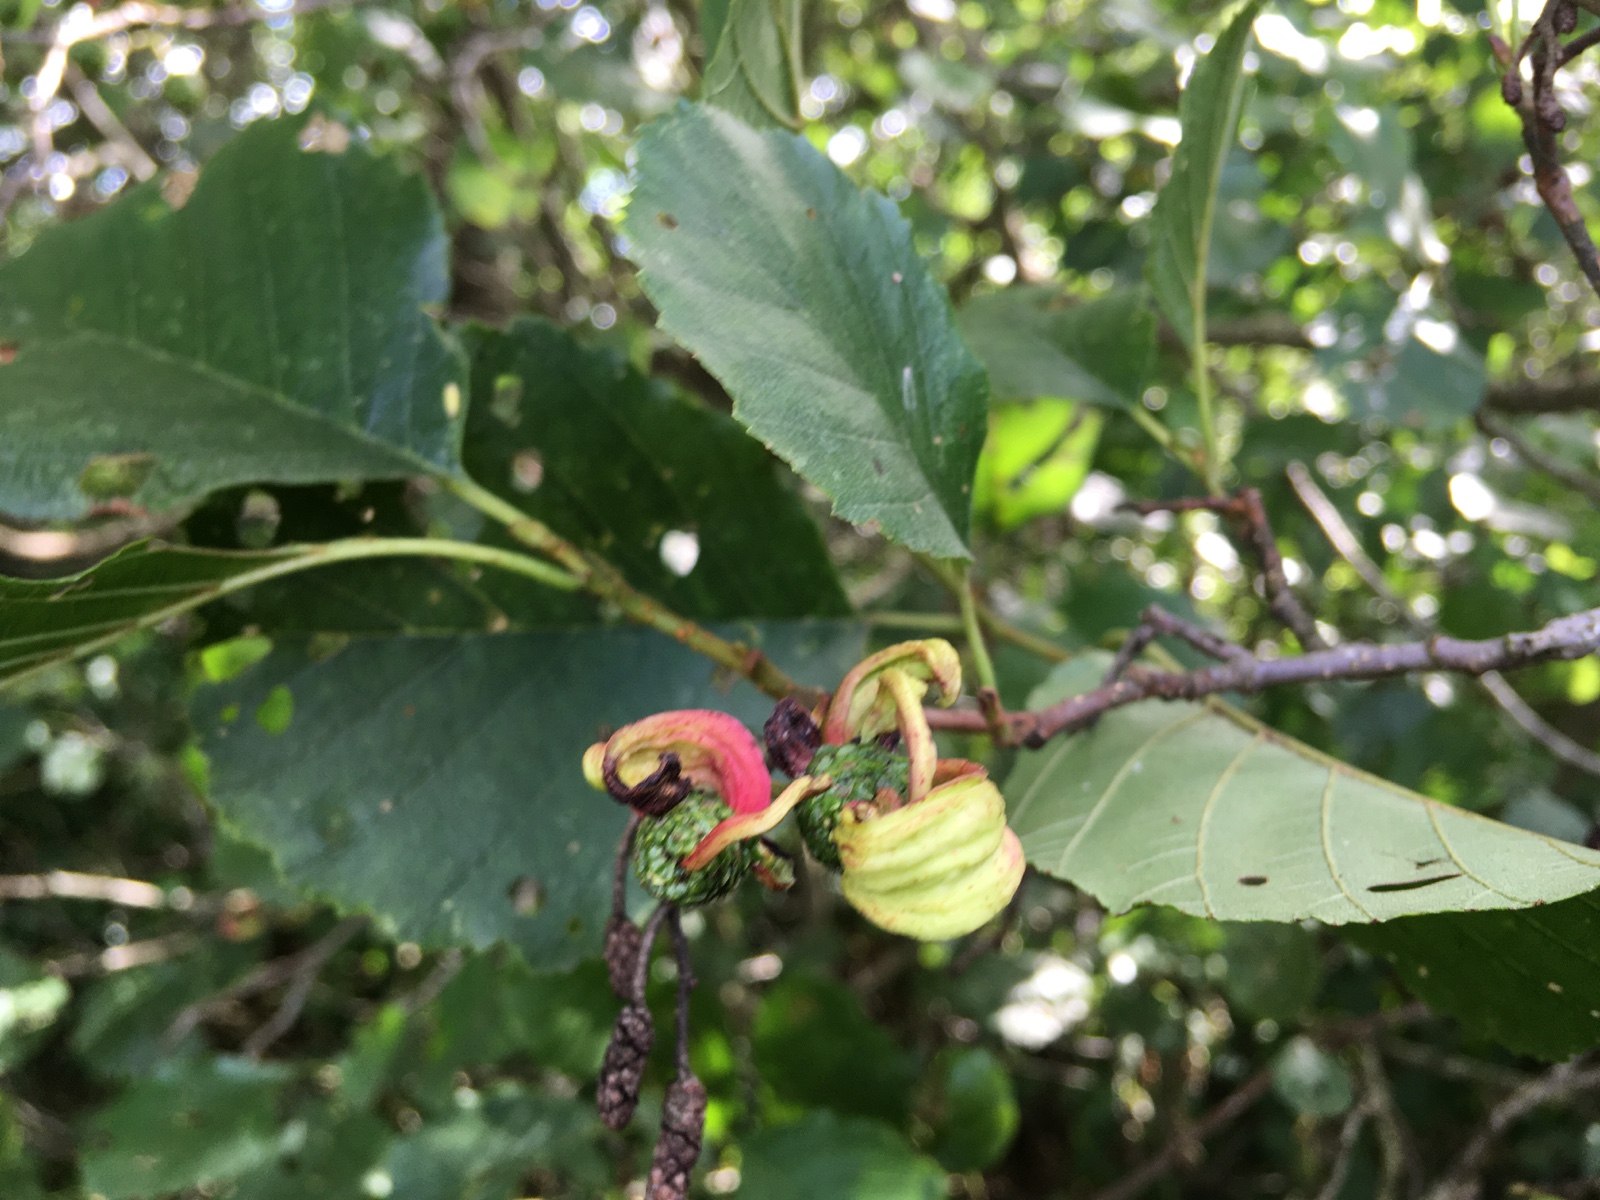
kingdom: Fungi
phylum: Ascomycota
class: Taphrinomycetes
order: Taphrinales
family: Taphrinaceae
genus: Taphrina
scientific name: Taphrina alni
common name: Alder tongue
